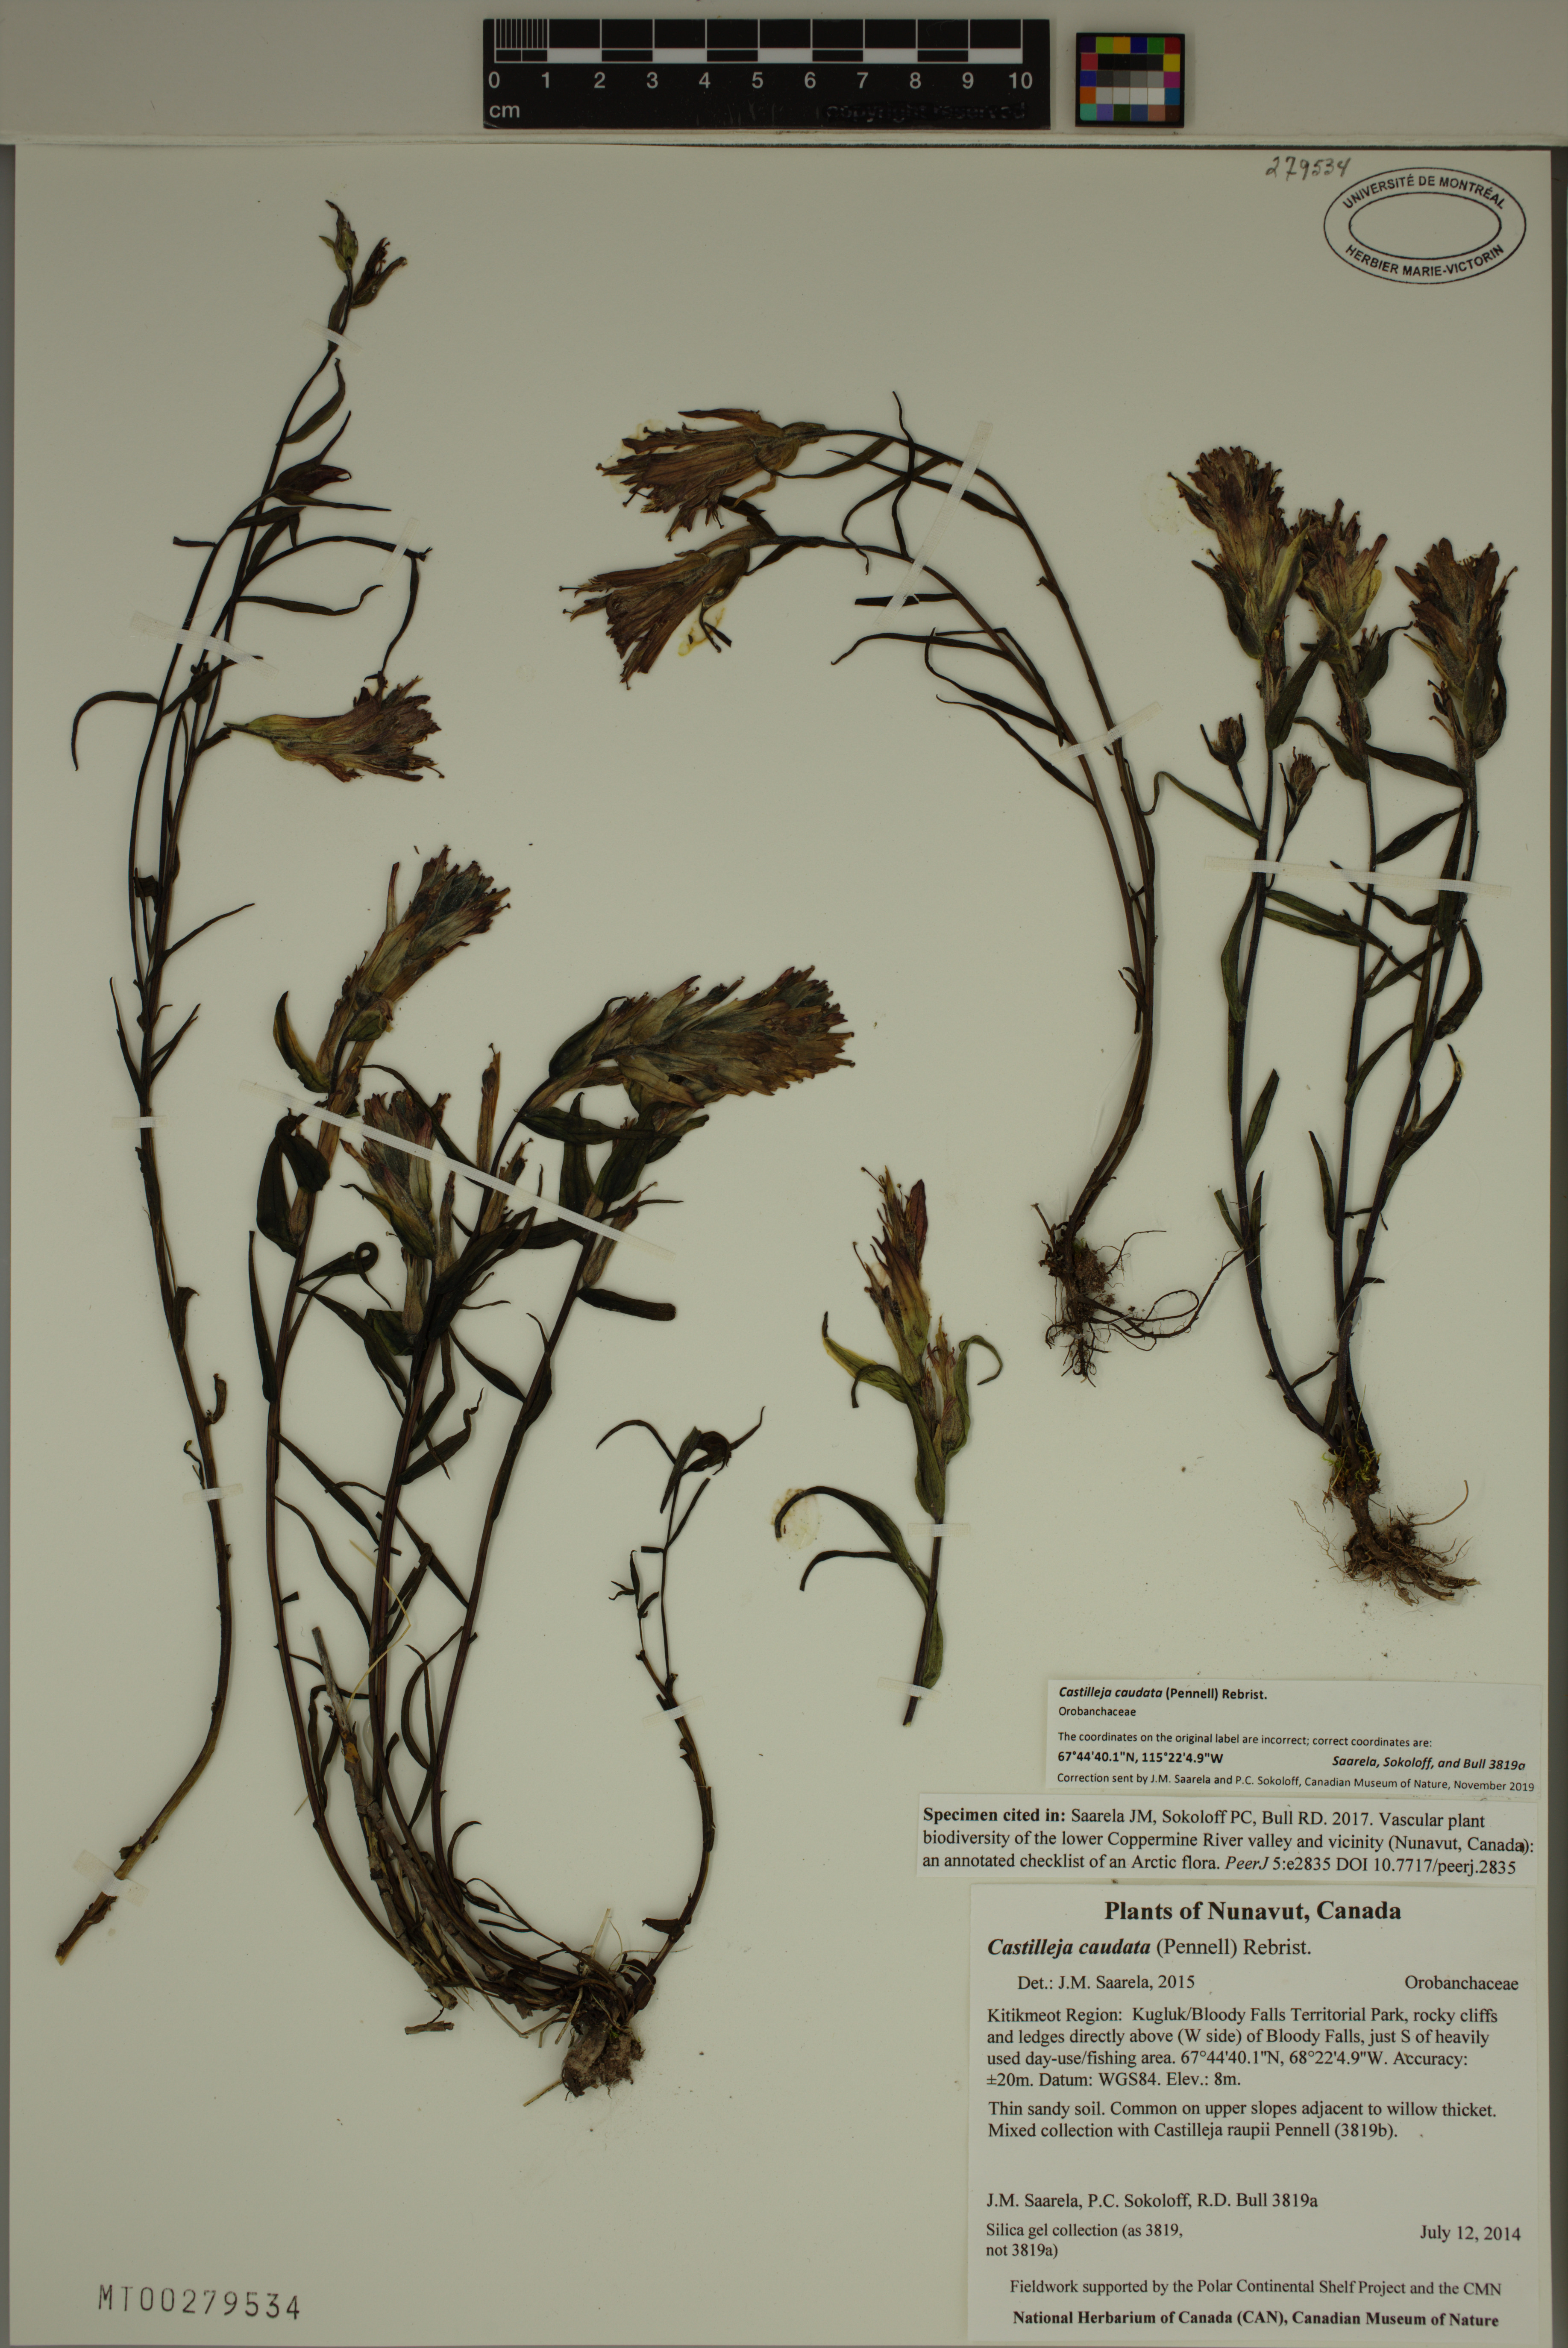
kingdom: Plantae
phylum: Tracheophyta
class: Magnoliopsida
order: Lamiales
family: Orobanchaceae
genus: Castilleja
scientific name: Castilleja pallida
